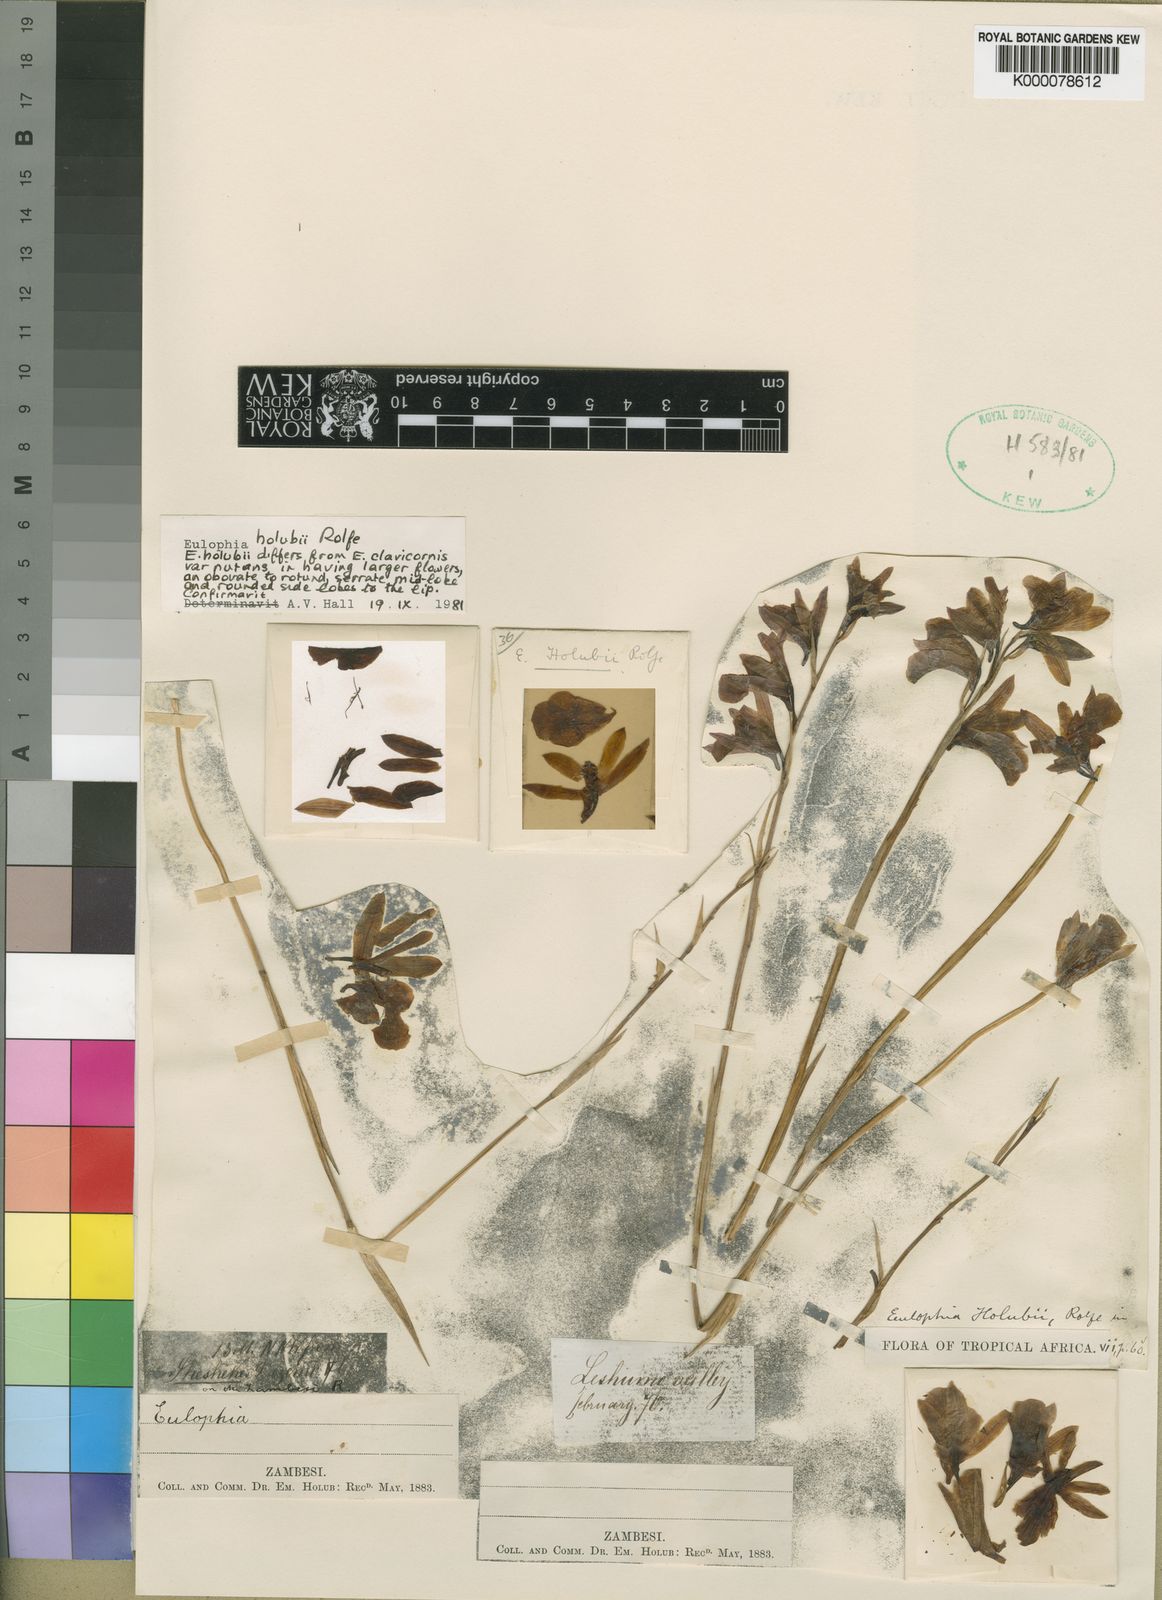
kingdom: Plantae
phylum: Tracheophyta
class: Liliopsida
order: Asparagales
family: Orchidaceae
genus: Eulophia
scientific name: Eulophia holubii
